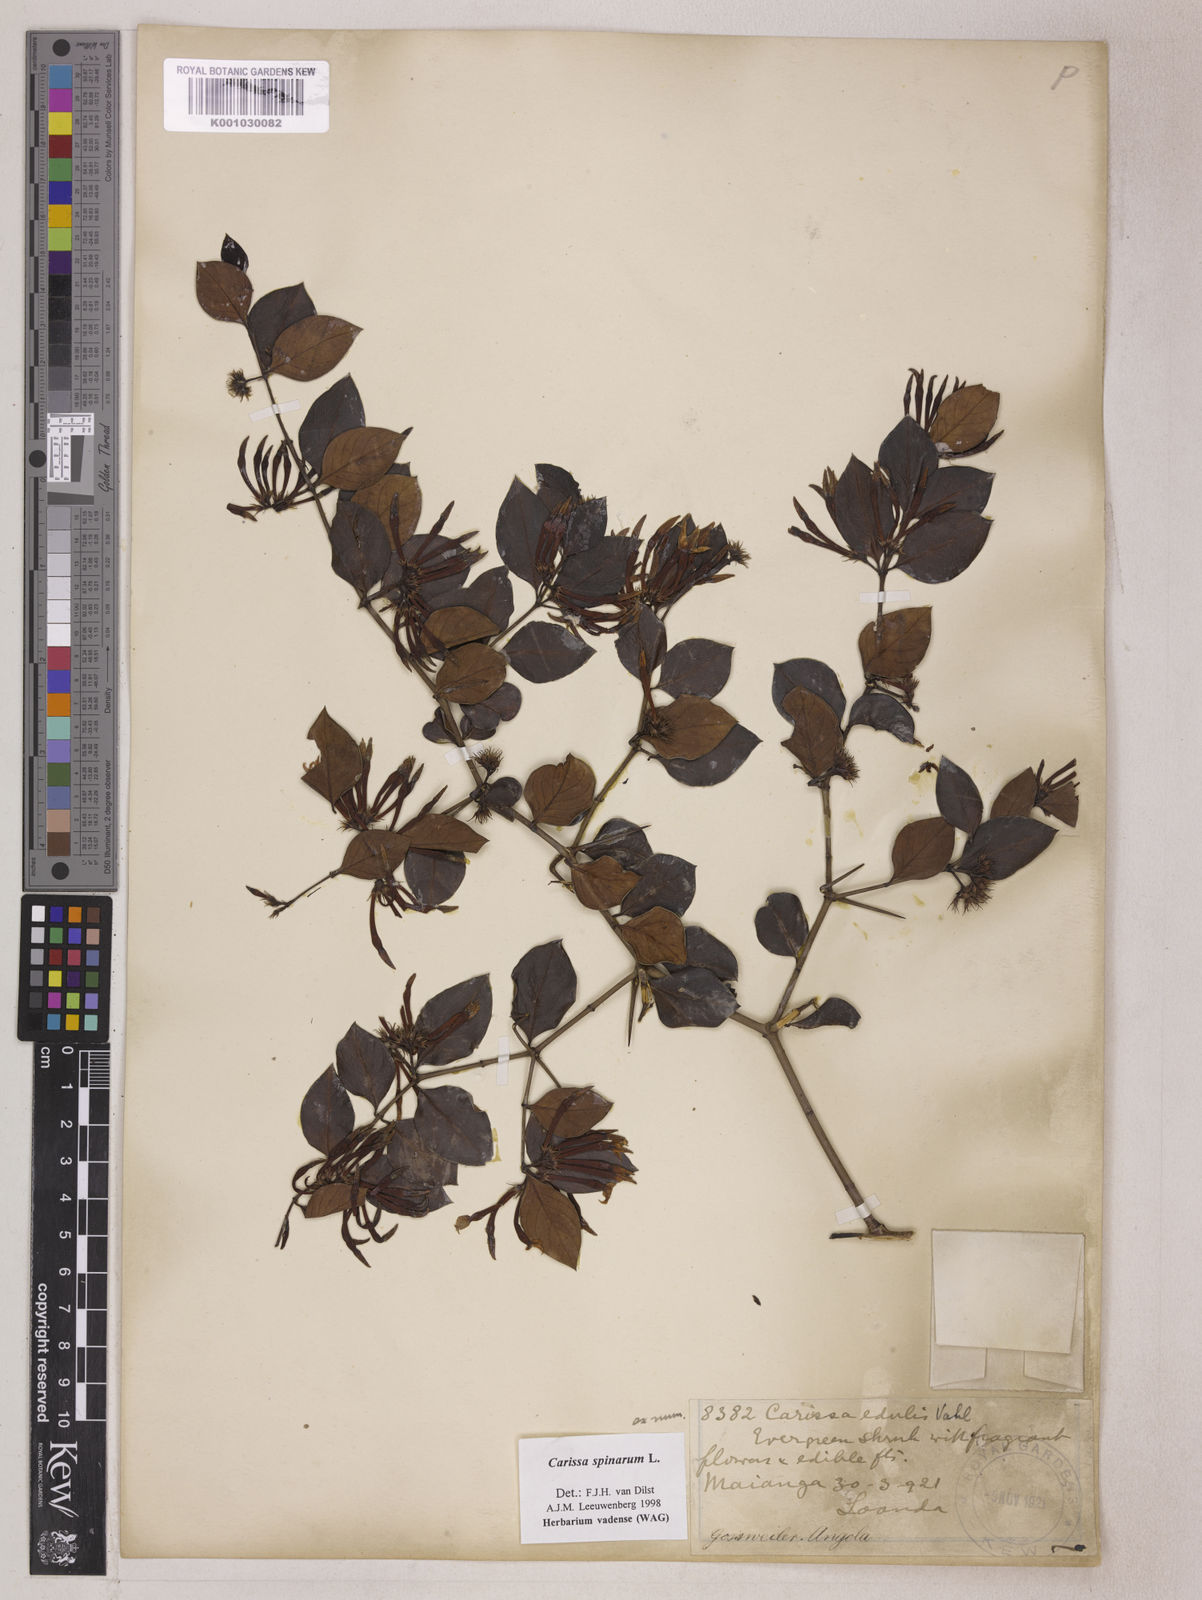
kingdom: Plantae
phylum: Tracheophyta
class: Magnoliopsida
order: Gentianales
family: Apocynaceae
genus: Carissa
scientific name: Carissa spinarum
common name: Egyptian carissa
